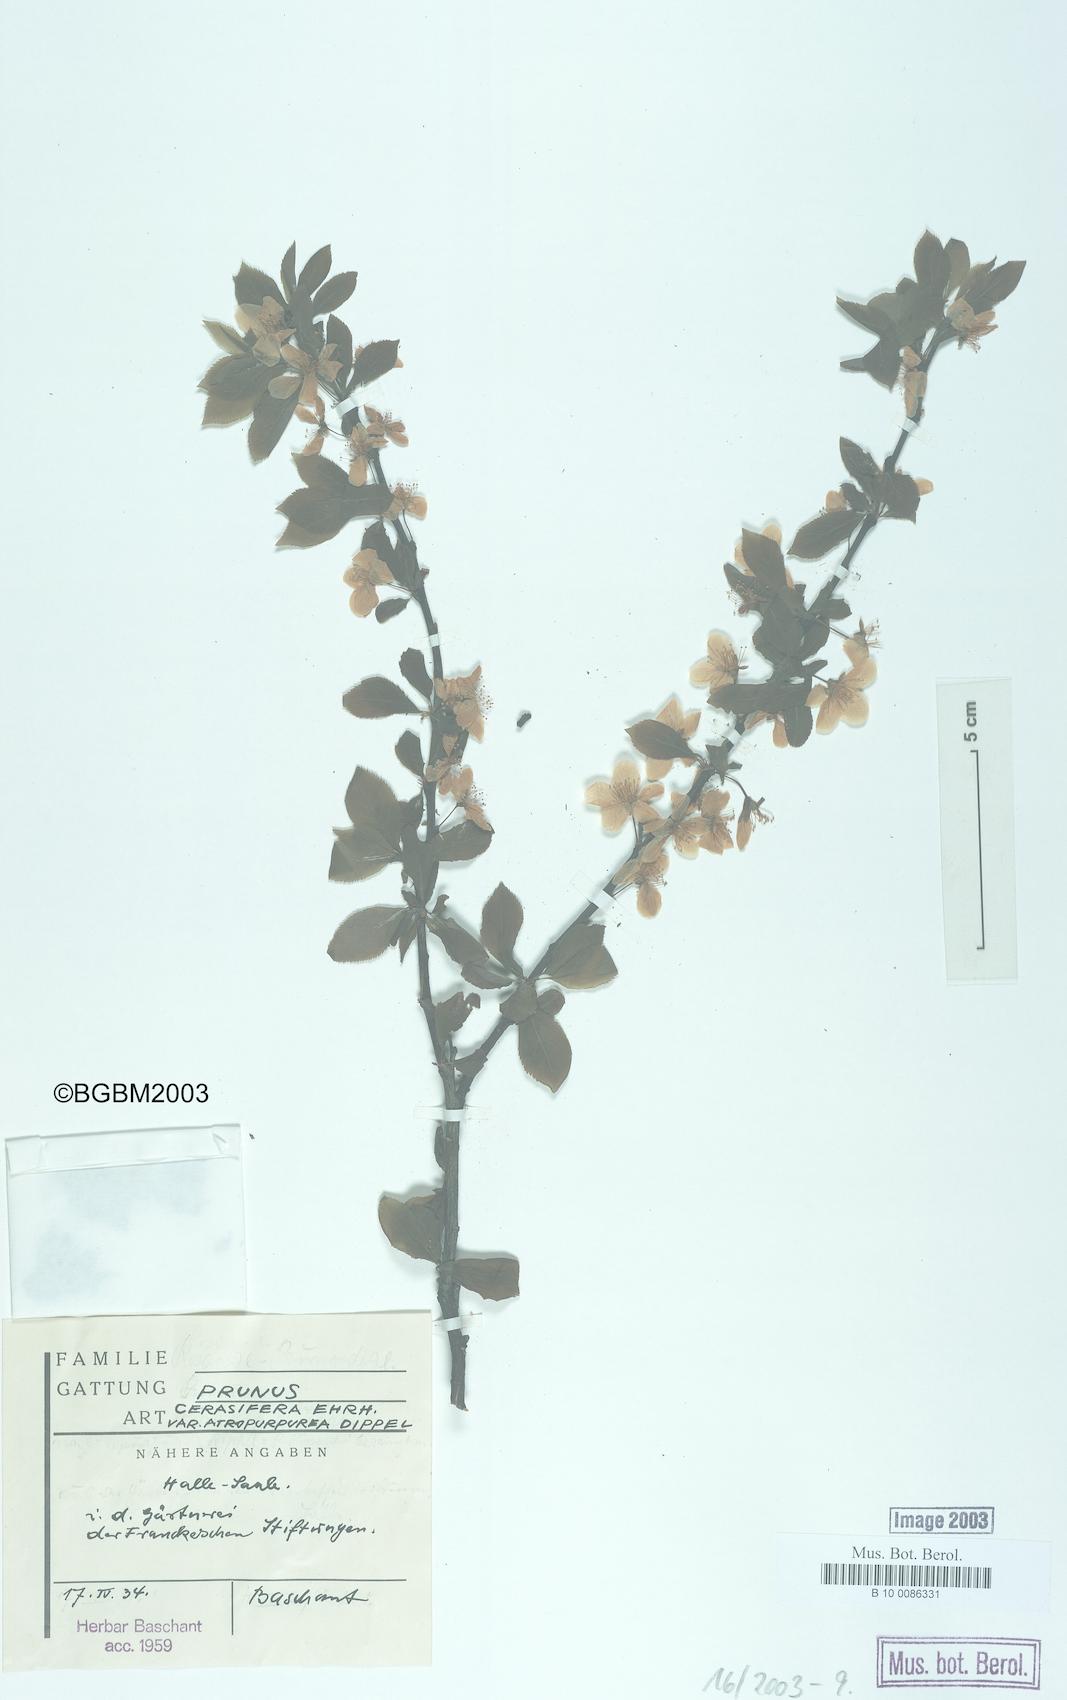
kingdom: Plantae
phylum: Tracheophyta
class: Magnoliopsida
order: Rosales
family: Rosaceae
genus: Prunus
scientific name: Prunus cerasifera
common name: Cherry plum
